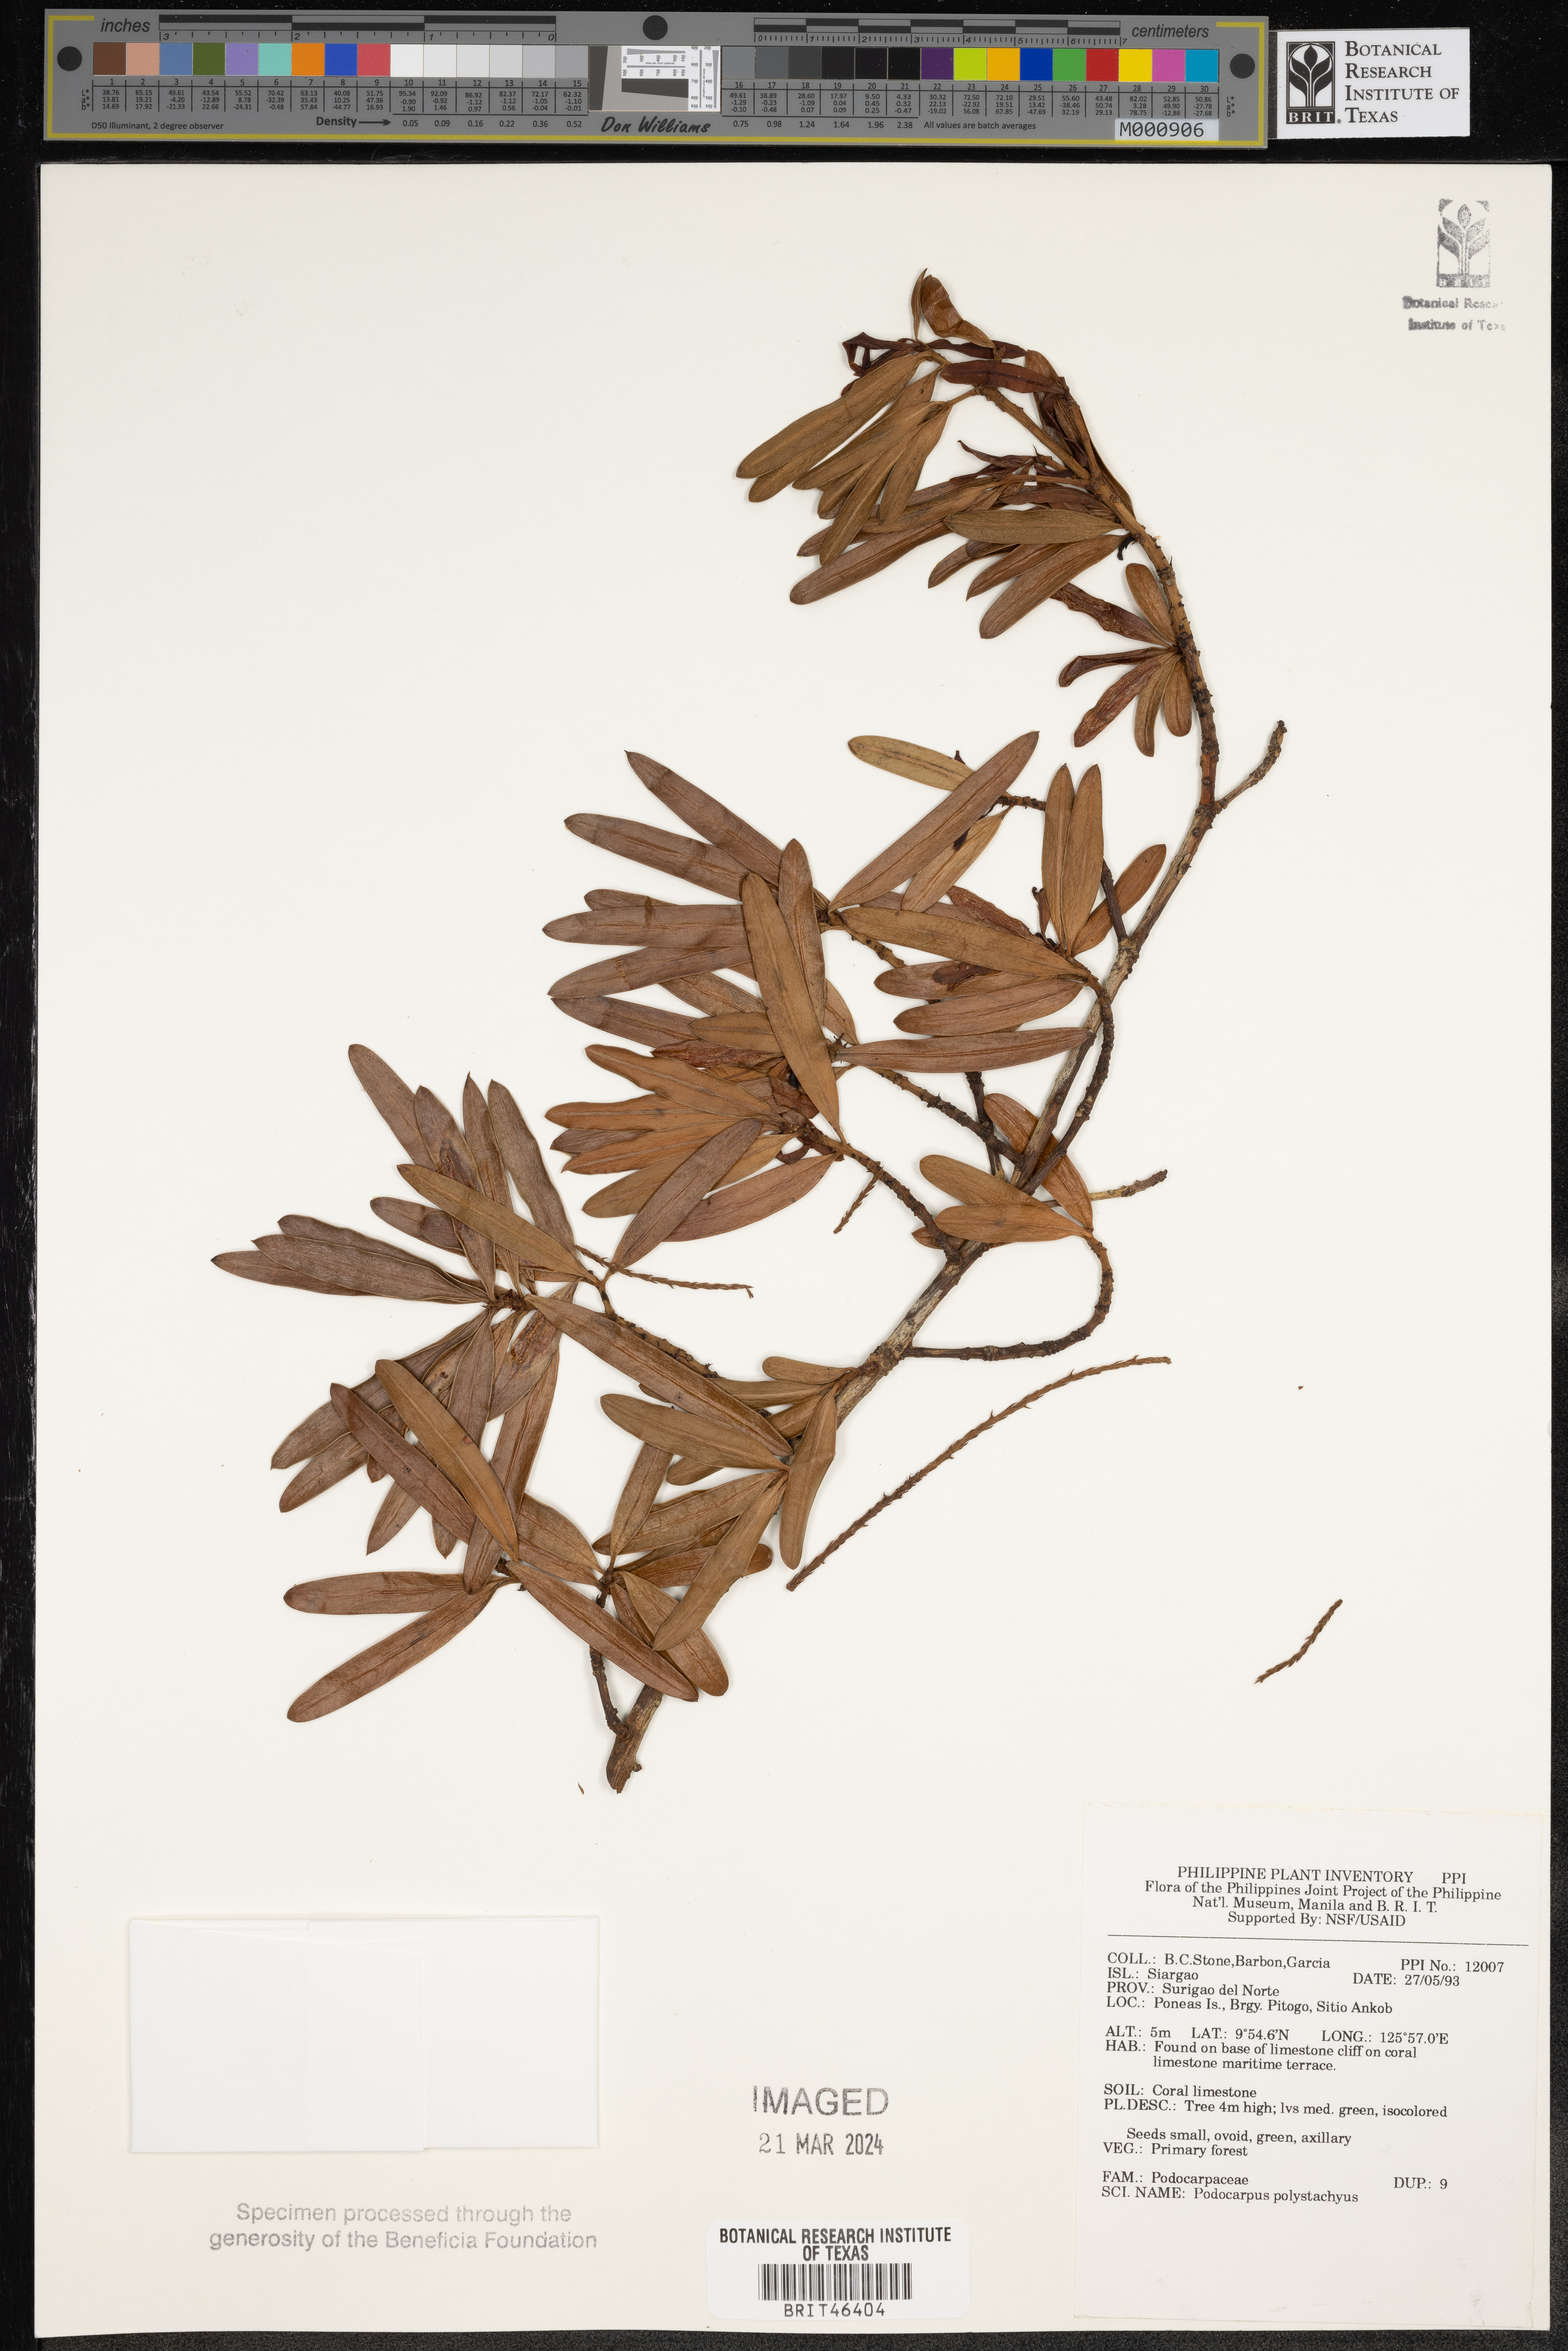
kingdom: Plantae
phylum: Tracheophyta
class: Pinopsida
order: Pinales
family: Podocarpaceae
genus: Podocarpus
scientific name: Podocarpus polystachyus
